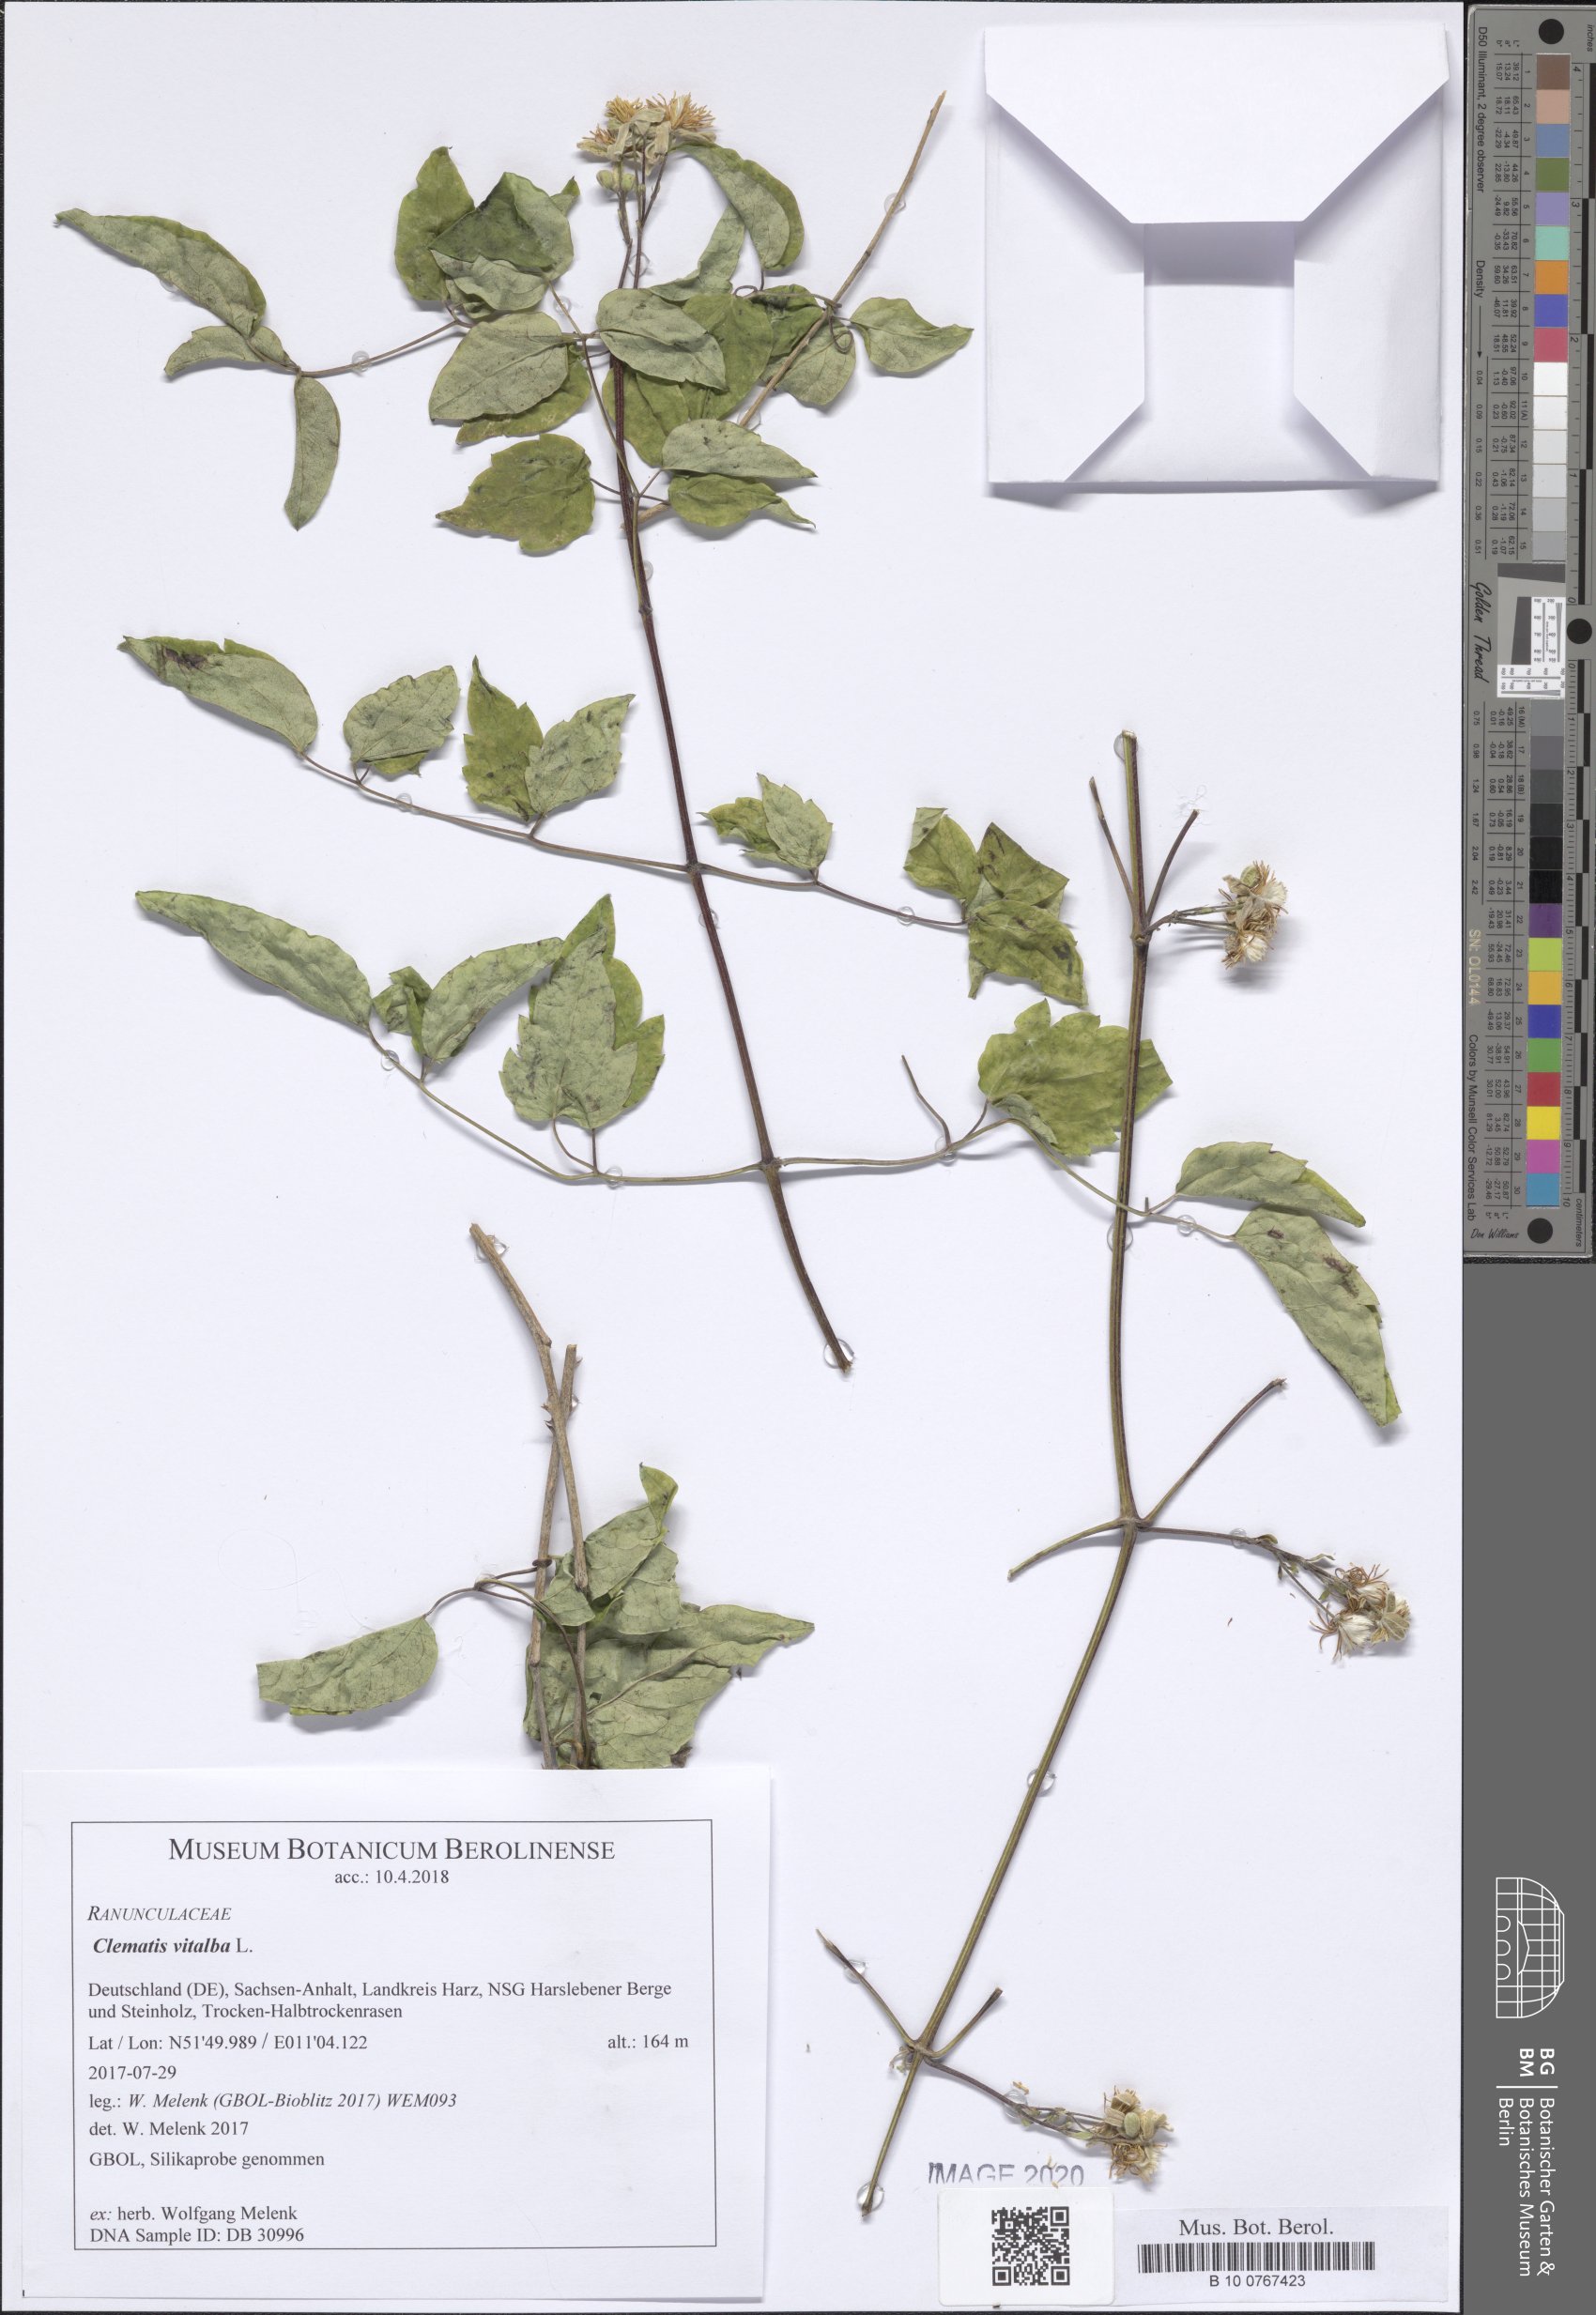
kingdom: Plantae
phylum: Tracheophyta
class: Magnoliopsida
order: Ranunculales
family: Ranunculaceae
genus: Clematis
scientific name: Clematis vitalba
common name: Evergreen clematis
